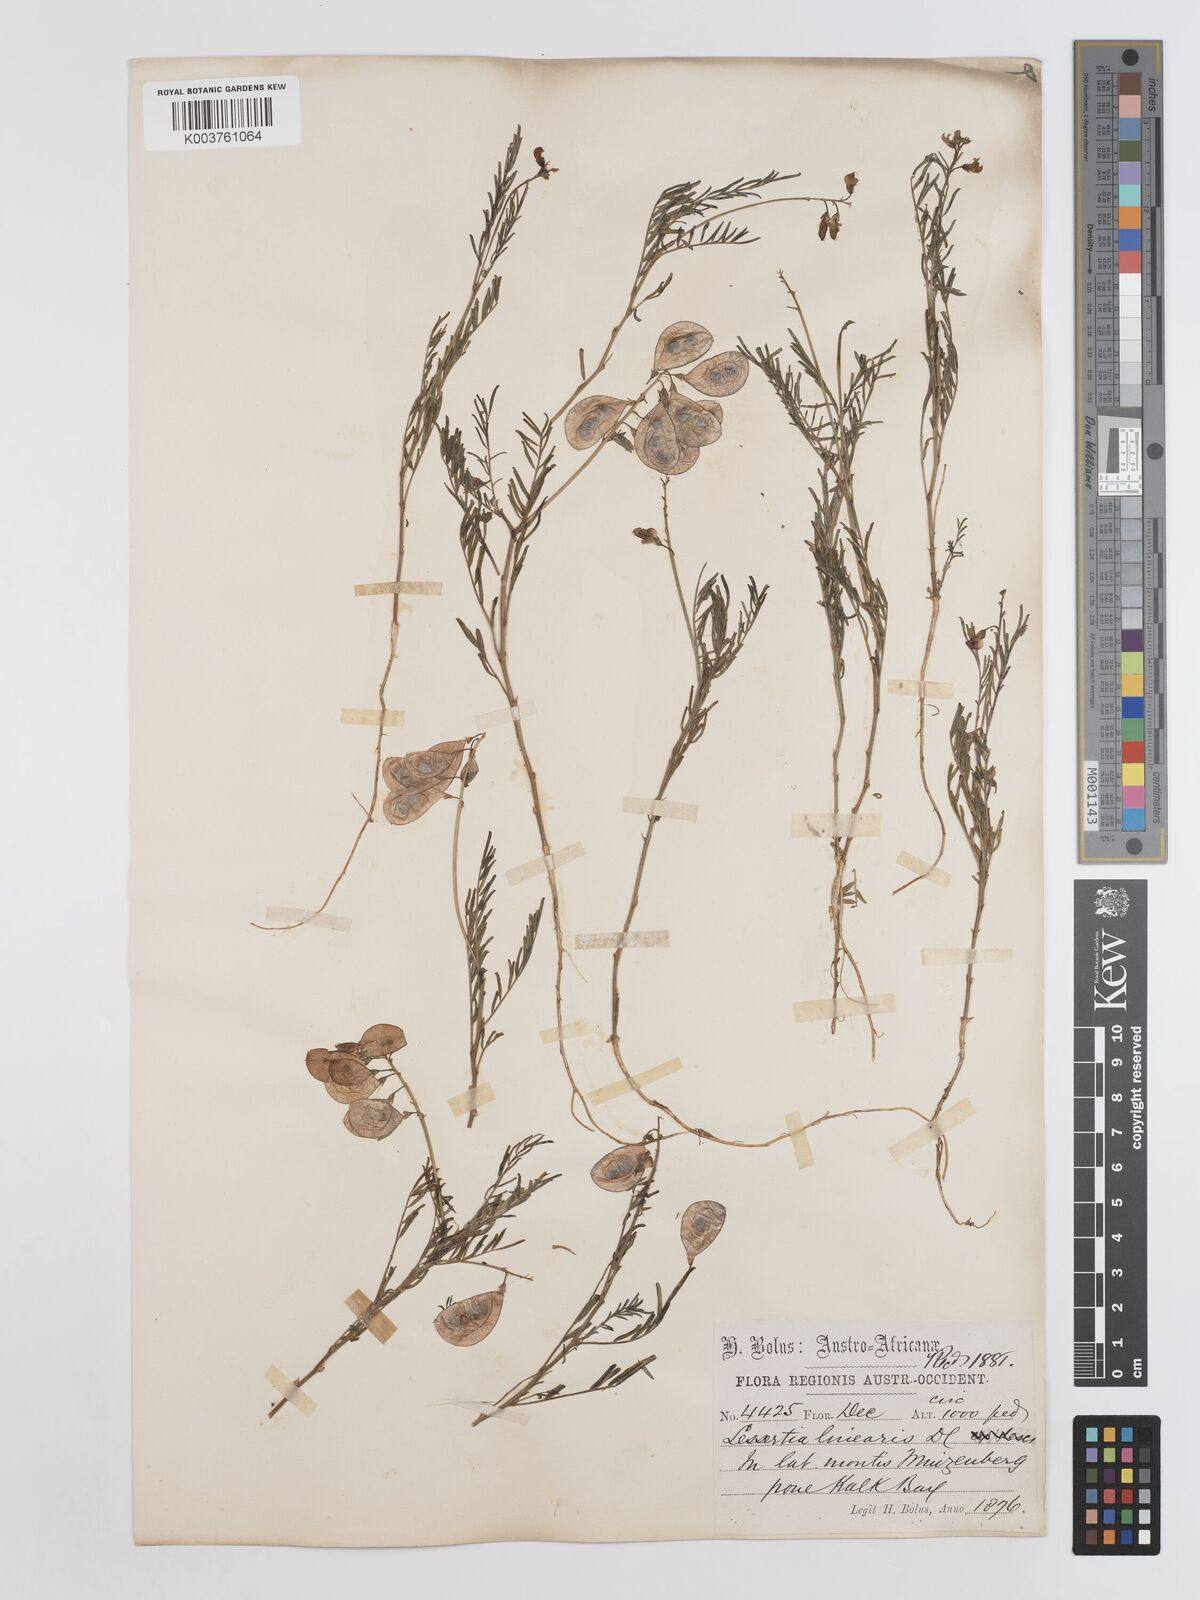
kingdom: Plantae
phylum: Tracheophyta
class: Magnoliopsida
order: Fabales
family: Fabaceae
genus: Lessertia
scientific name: Lessertia herbacea
